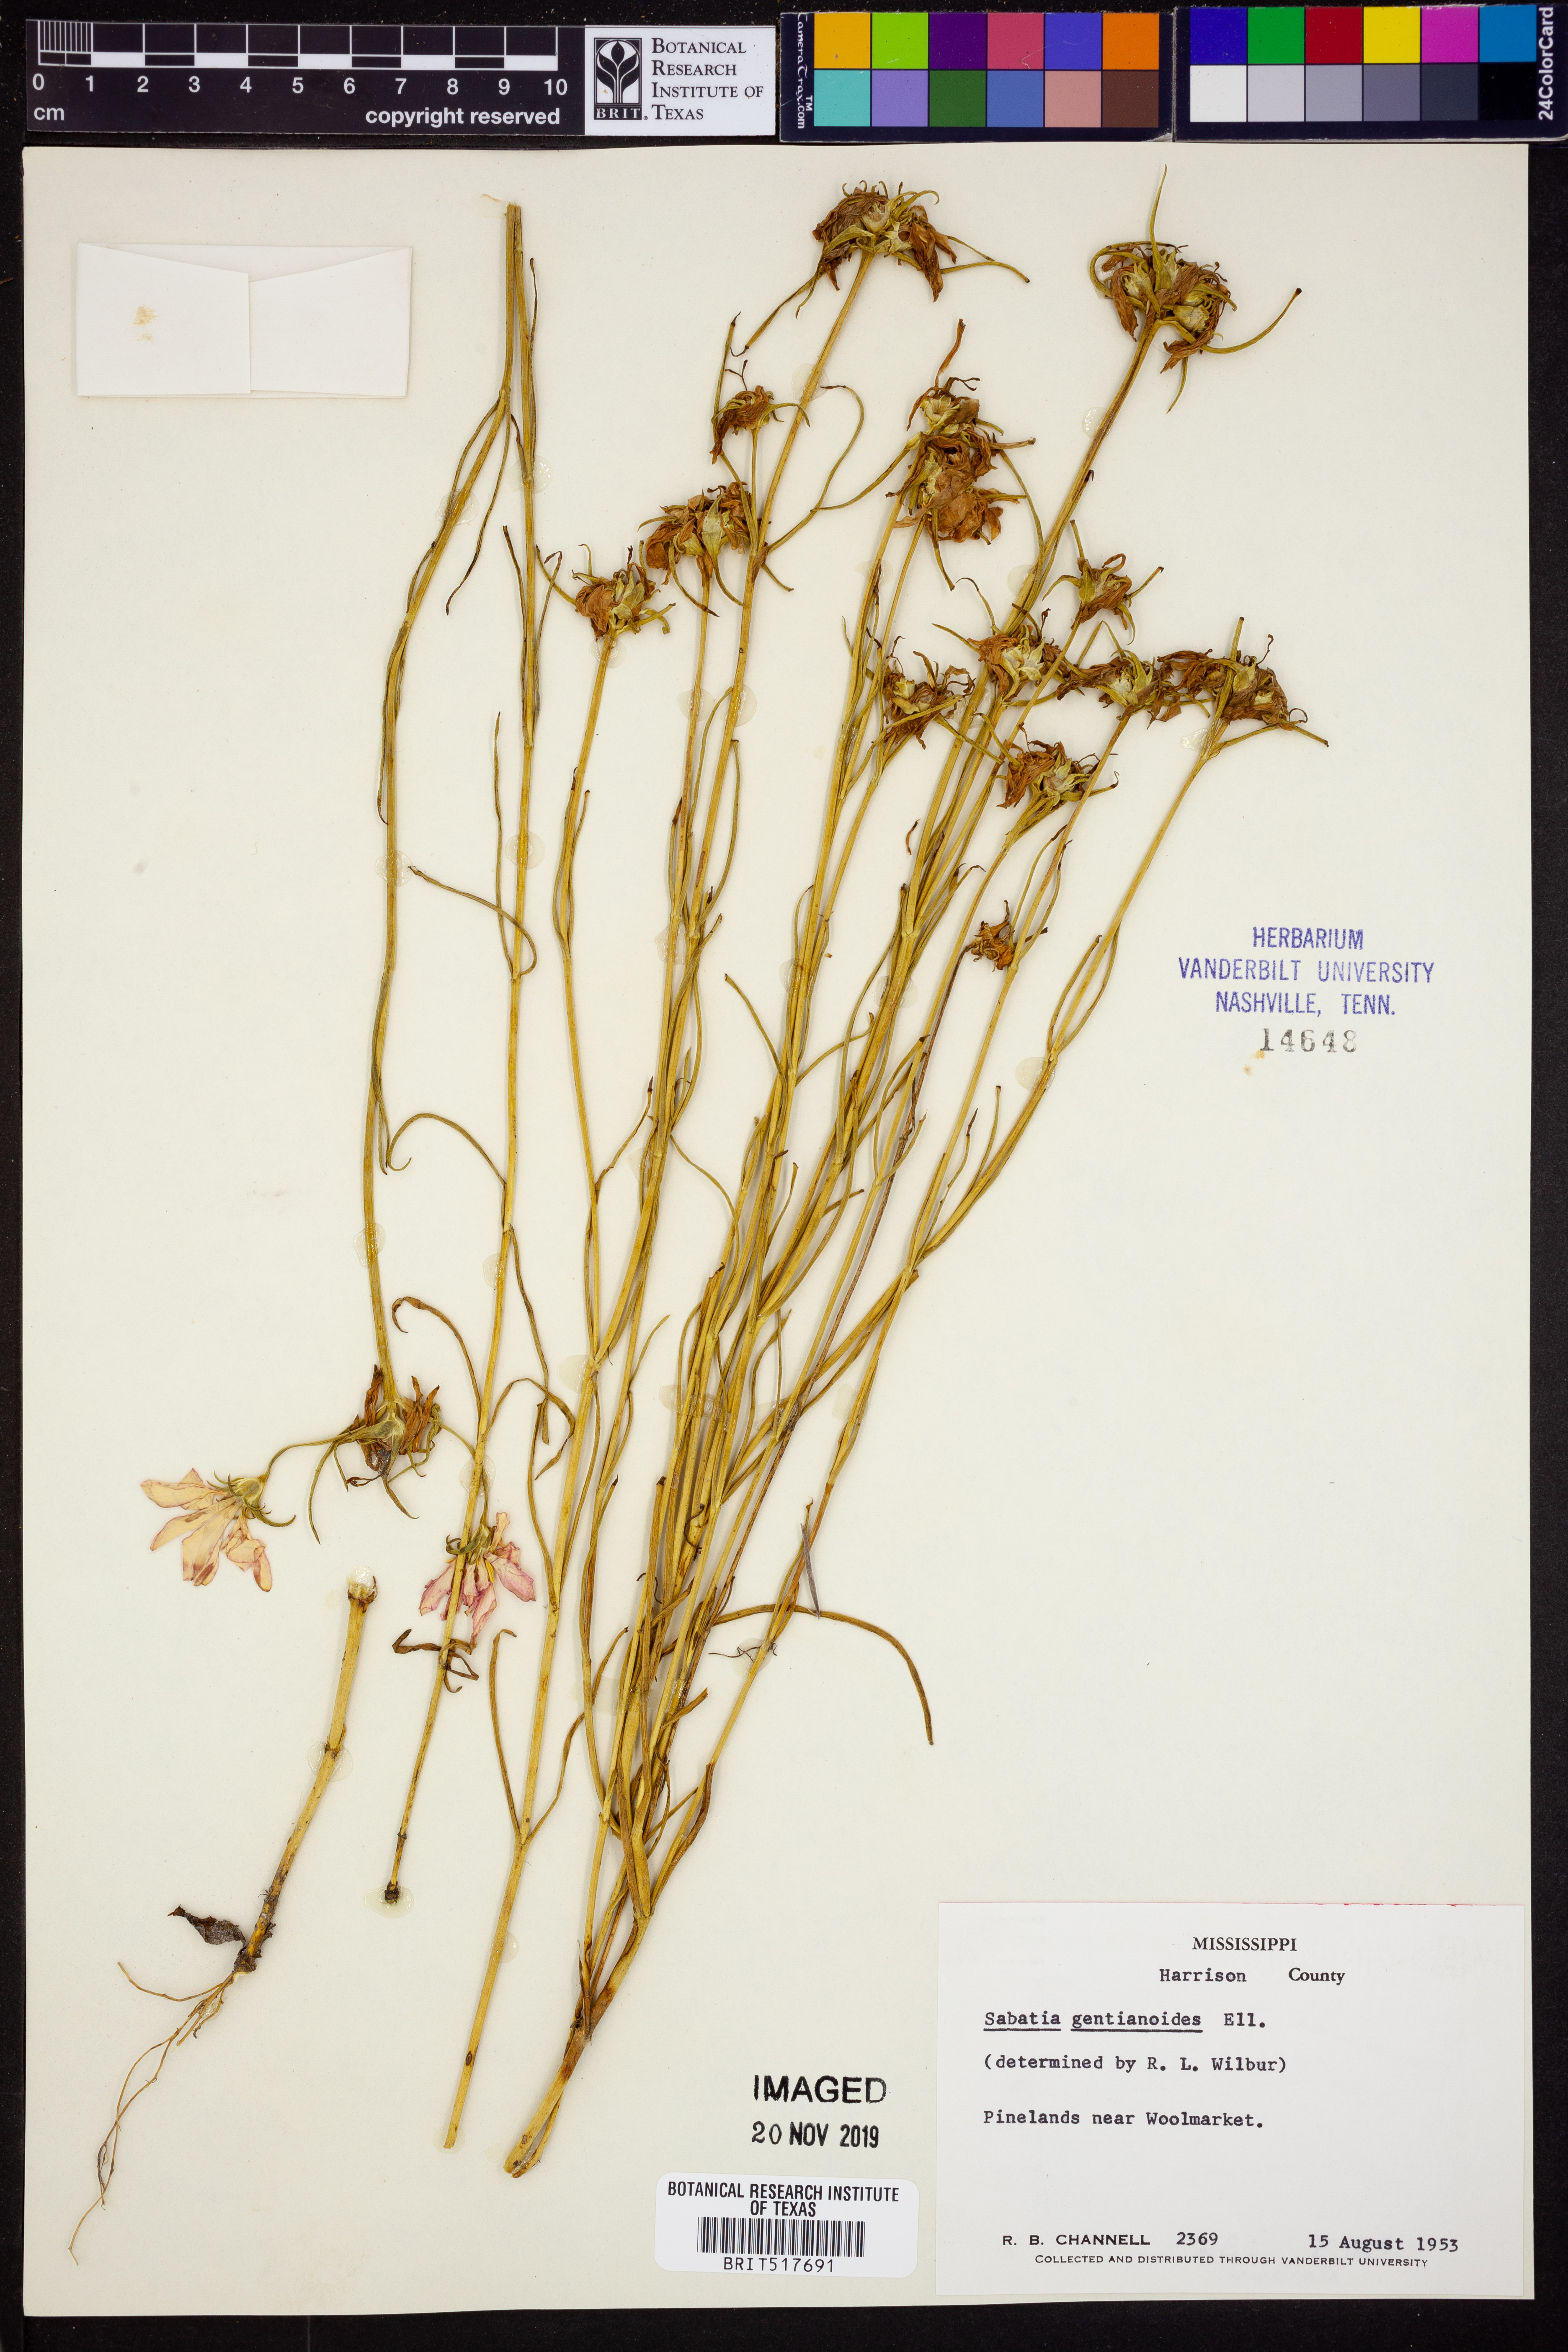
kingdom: Plantae
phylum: Tracheophyta
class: Magnoliopsida
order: Gentianales
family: Gentianaceae
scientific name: Gentianaceae
